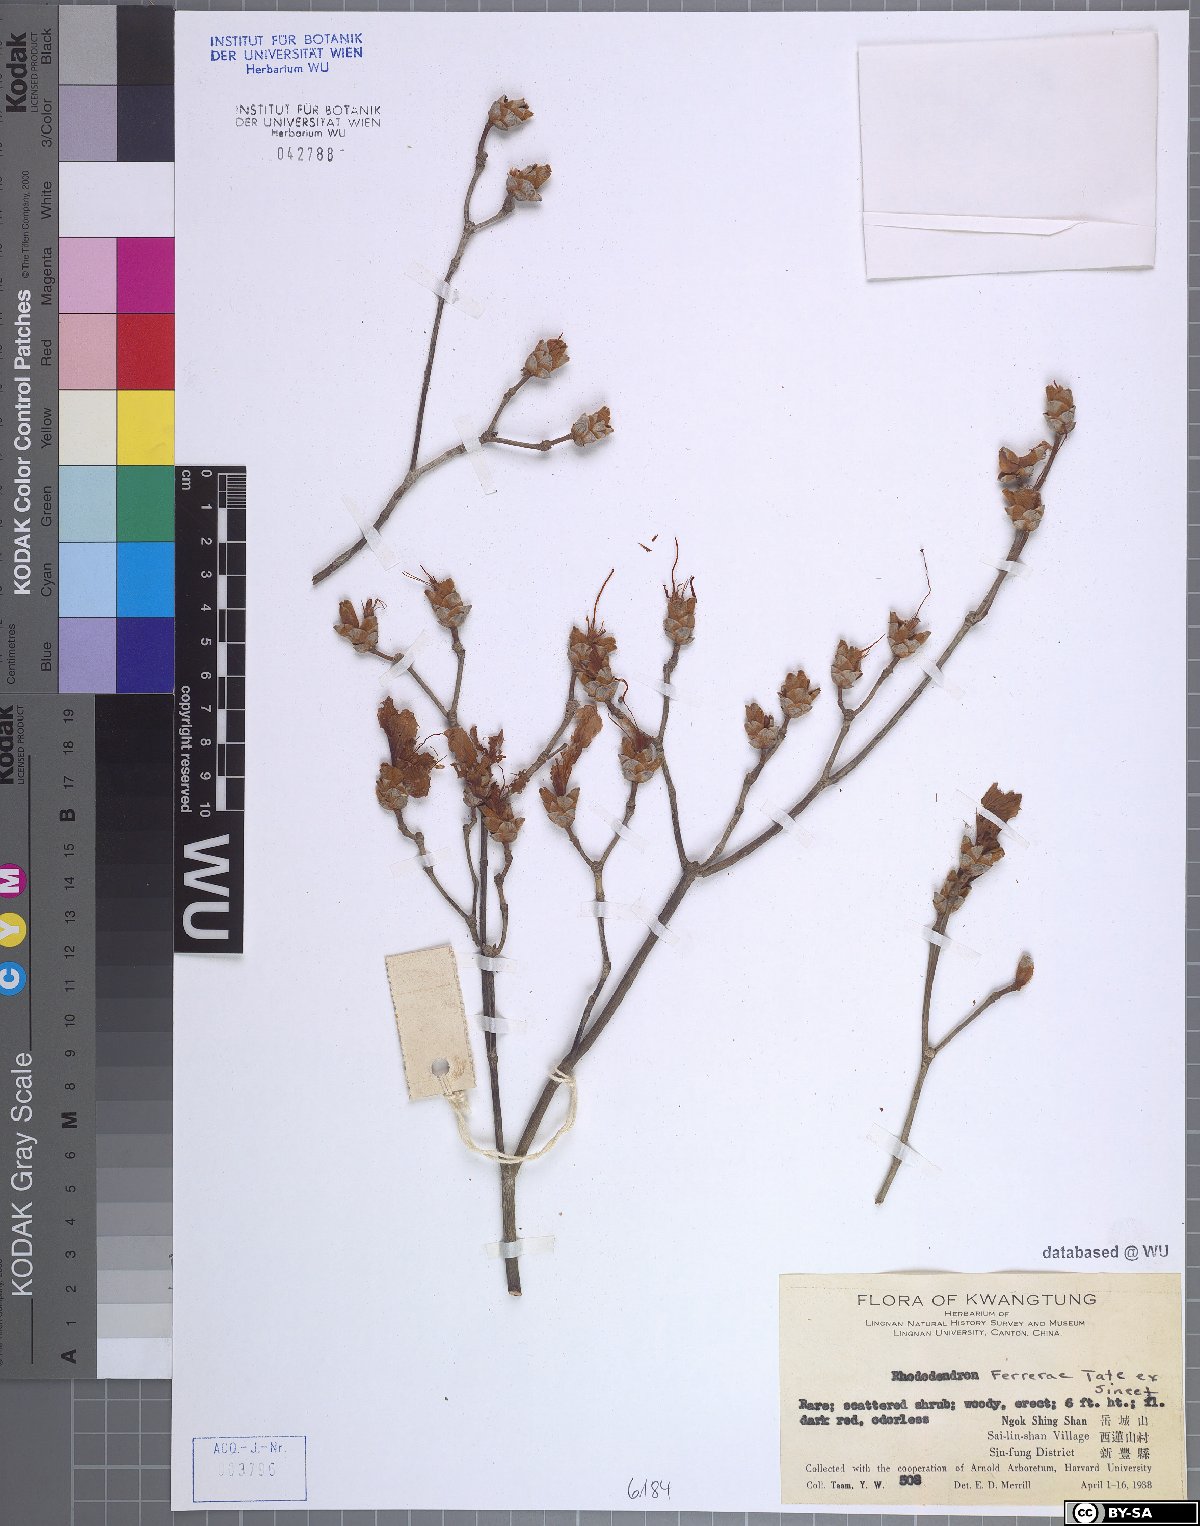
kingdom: Plantae
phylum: Tracheophyta
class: Magnoliopsida
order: Ericales
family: Ericaceae
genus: Rhododendron
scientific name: Rhododendron
